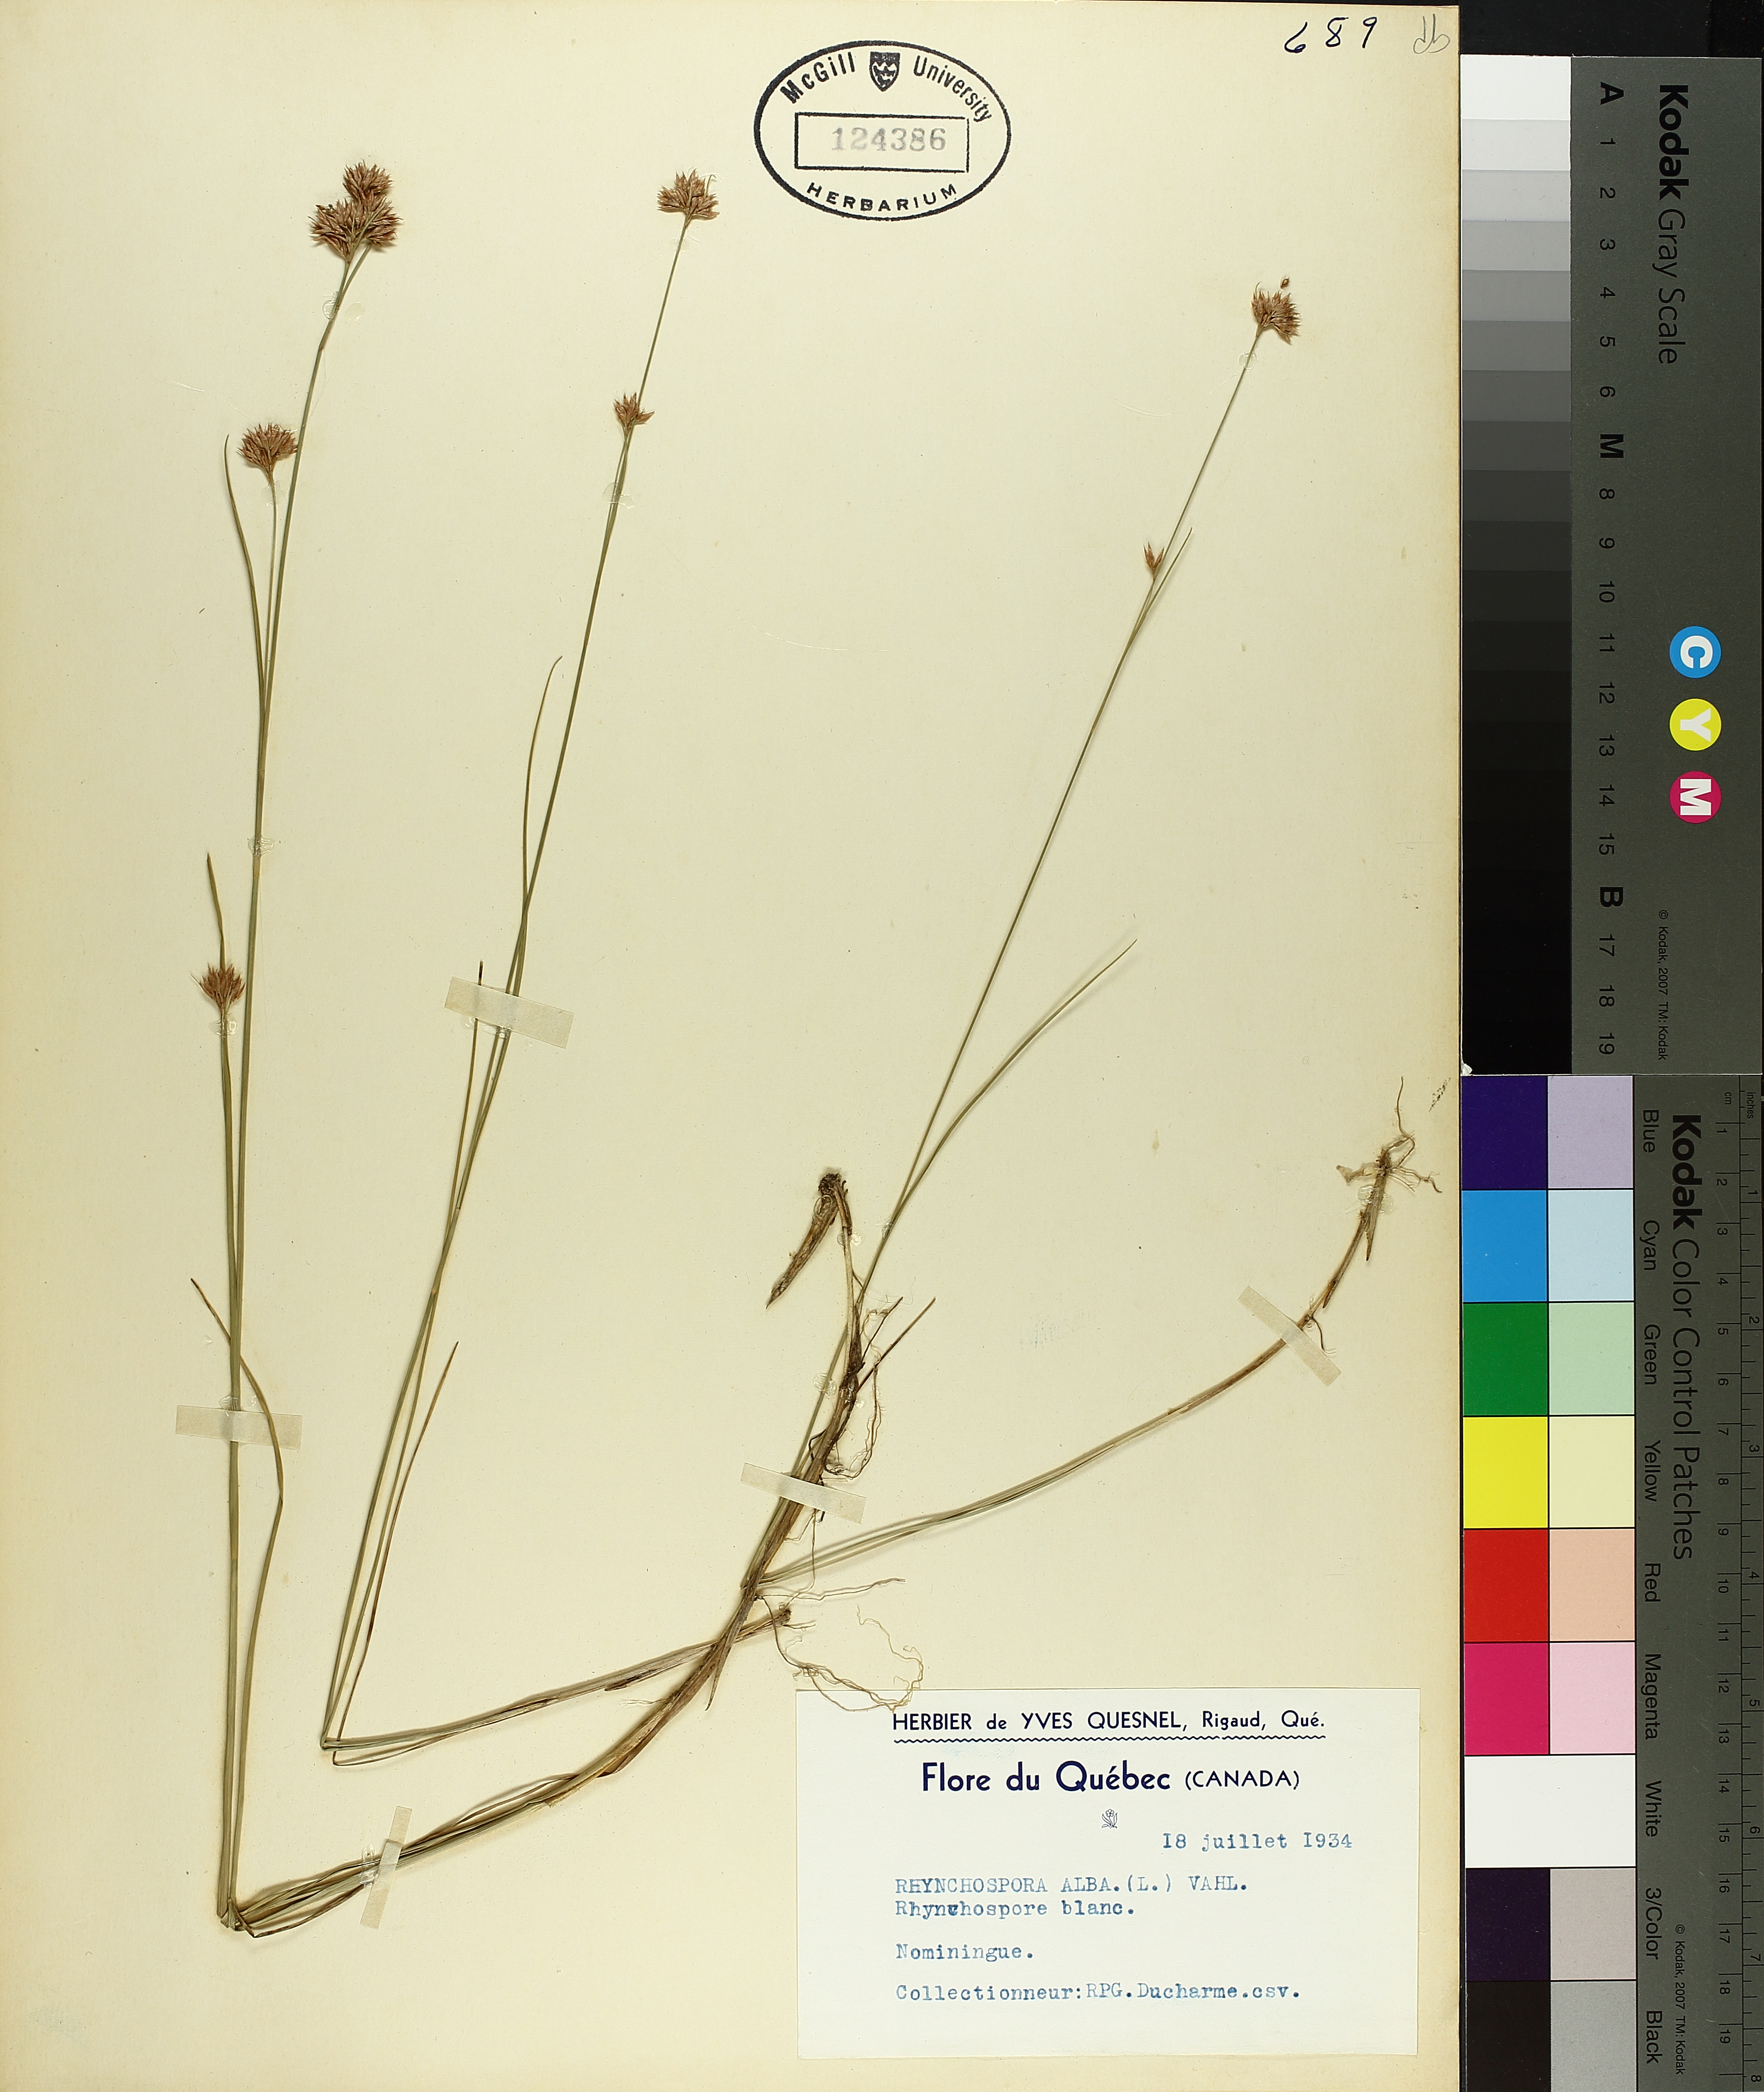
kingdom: Plantae
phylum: Tracheophyta
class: Liliopsida
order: Poales
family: Cyperaceae
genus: Rhynchospora
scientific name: Rhynchospora alba
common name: White beak-sedge
